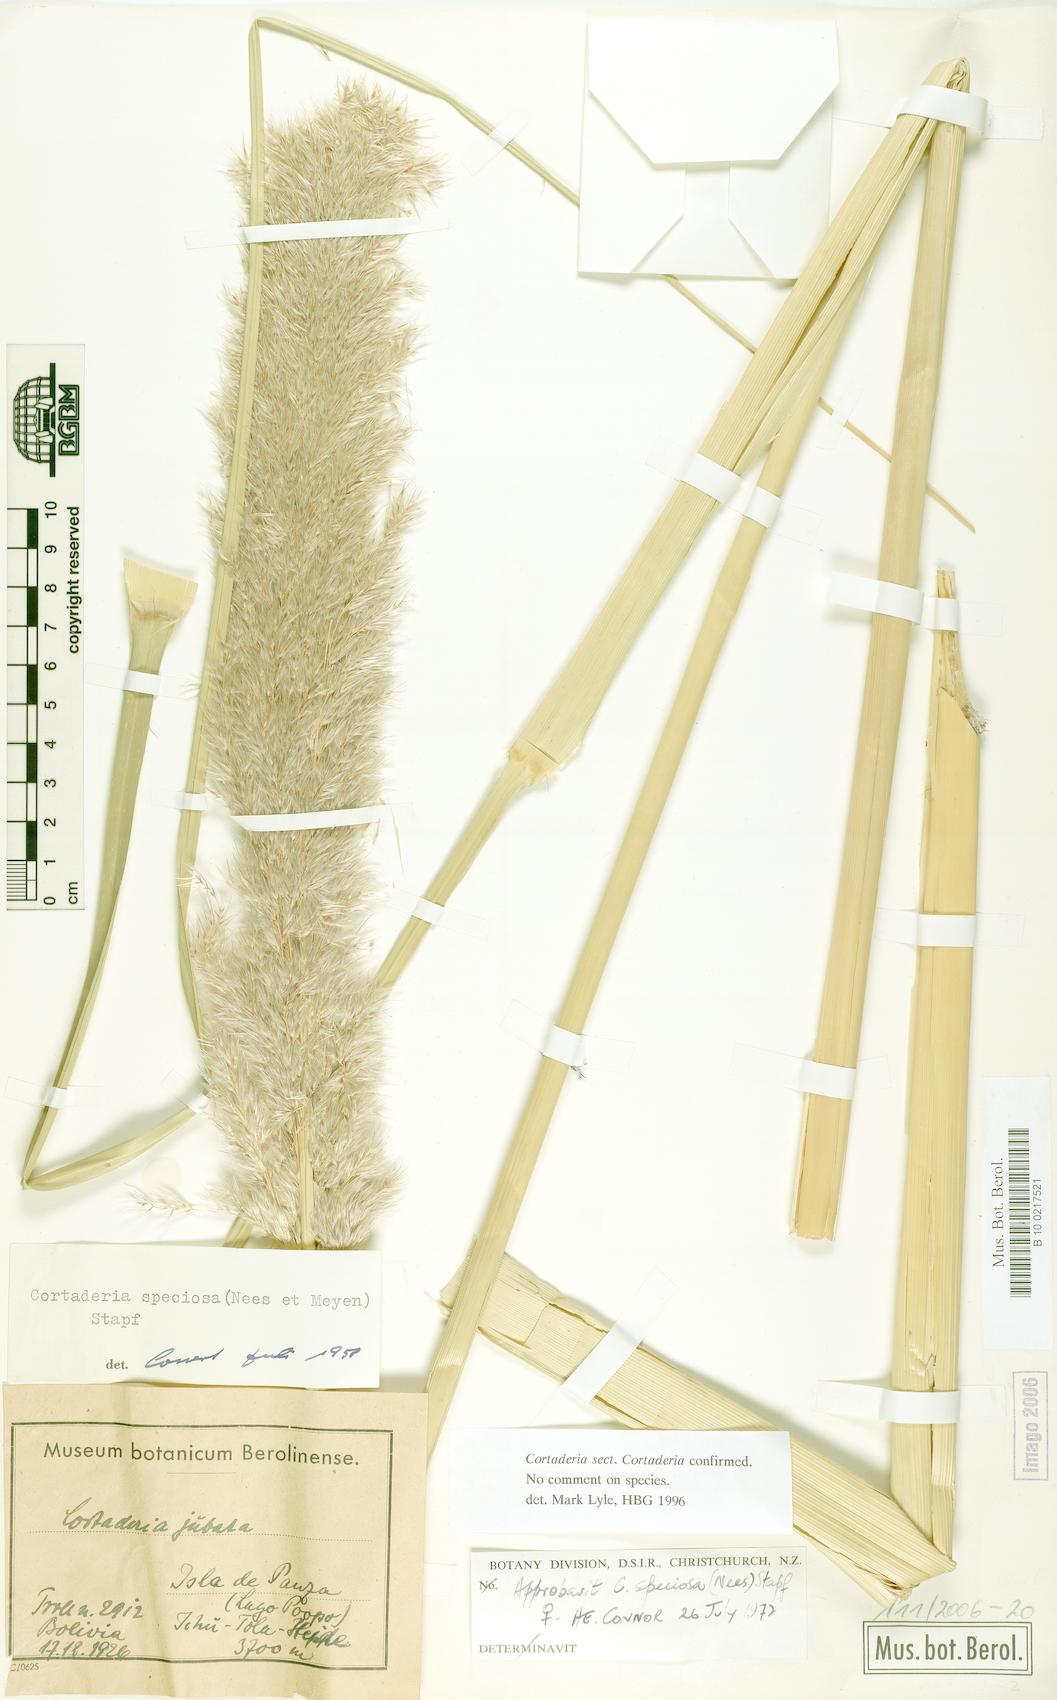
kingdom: Plantae
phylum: Tracheophyta
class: Liliopsida
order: Poales
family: Poaceae
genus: Chusquea
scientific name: Chusquea quila
